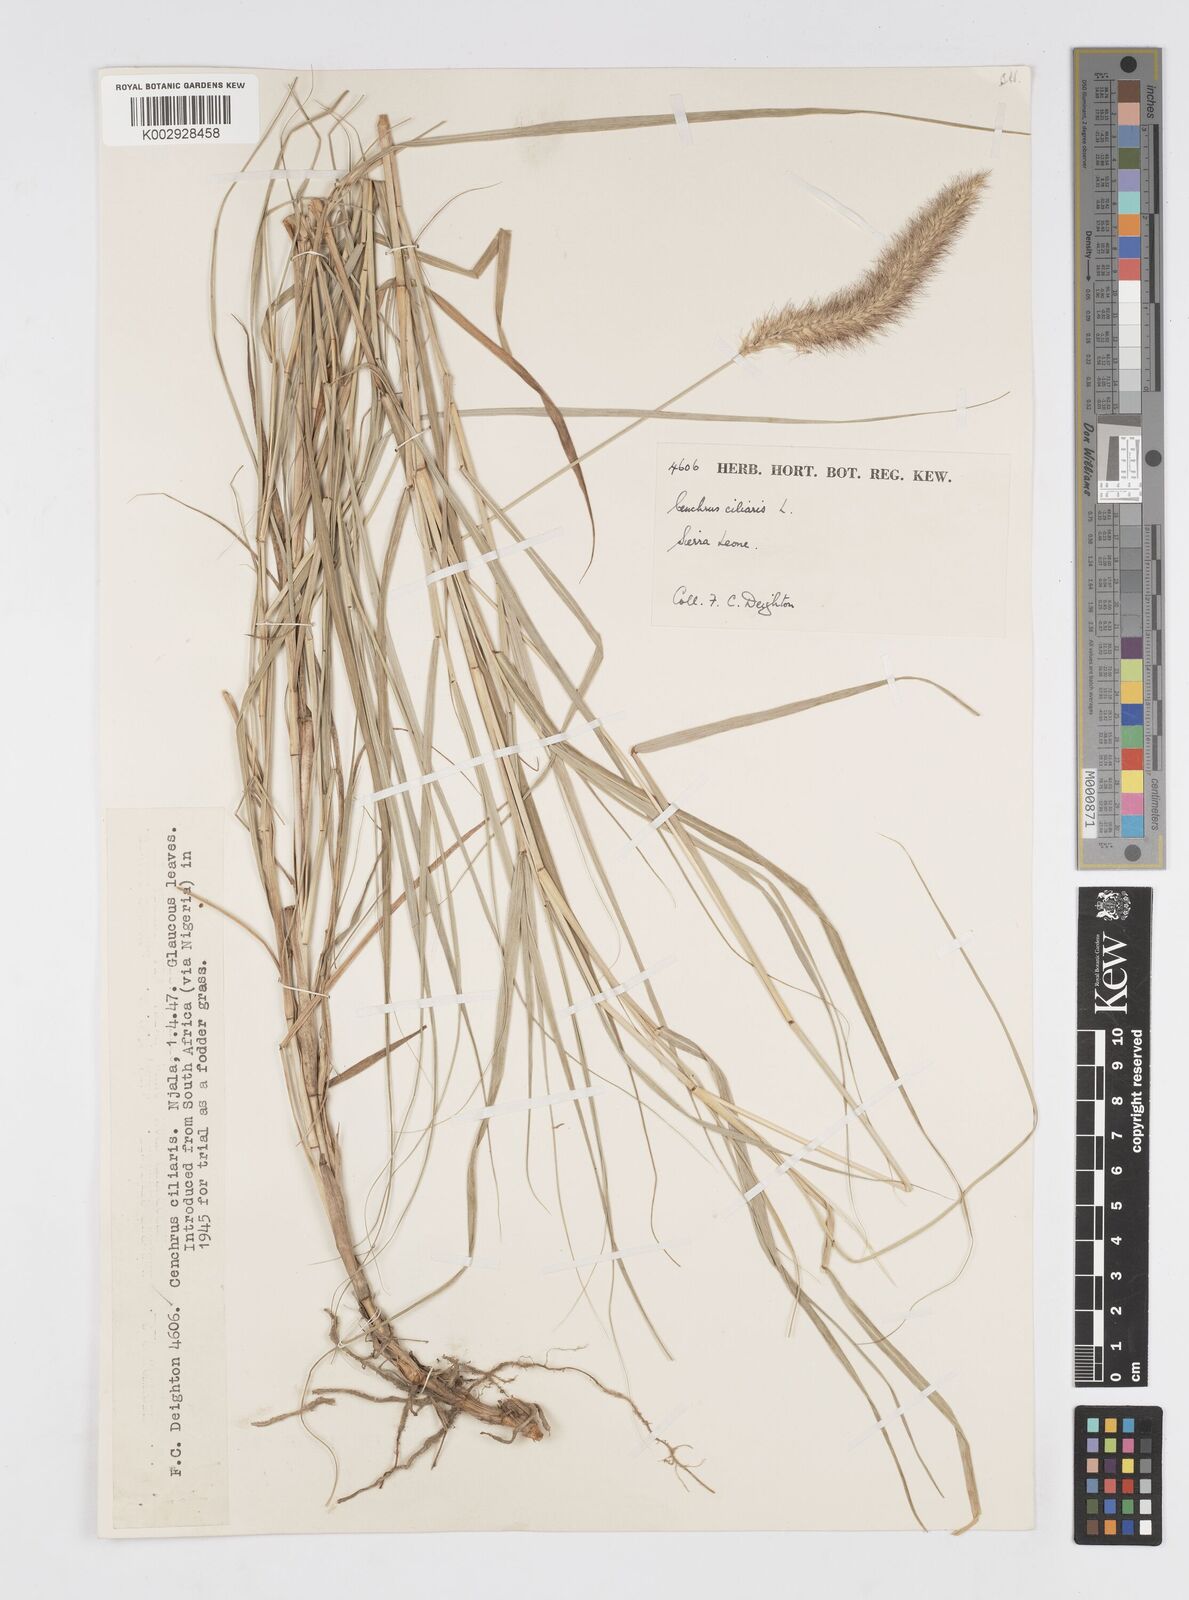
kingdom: Plantae
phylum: Tracheophyta
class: Liliopsida
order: Poales
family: Poaceae
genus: Cenchrus
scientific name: Cenchrus ciliaris
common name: Buffelgrass
